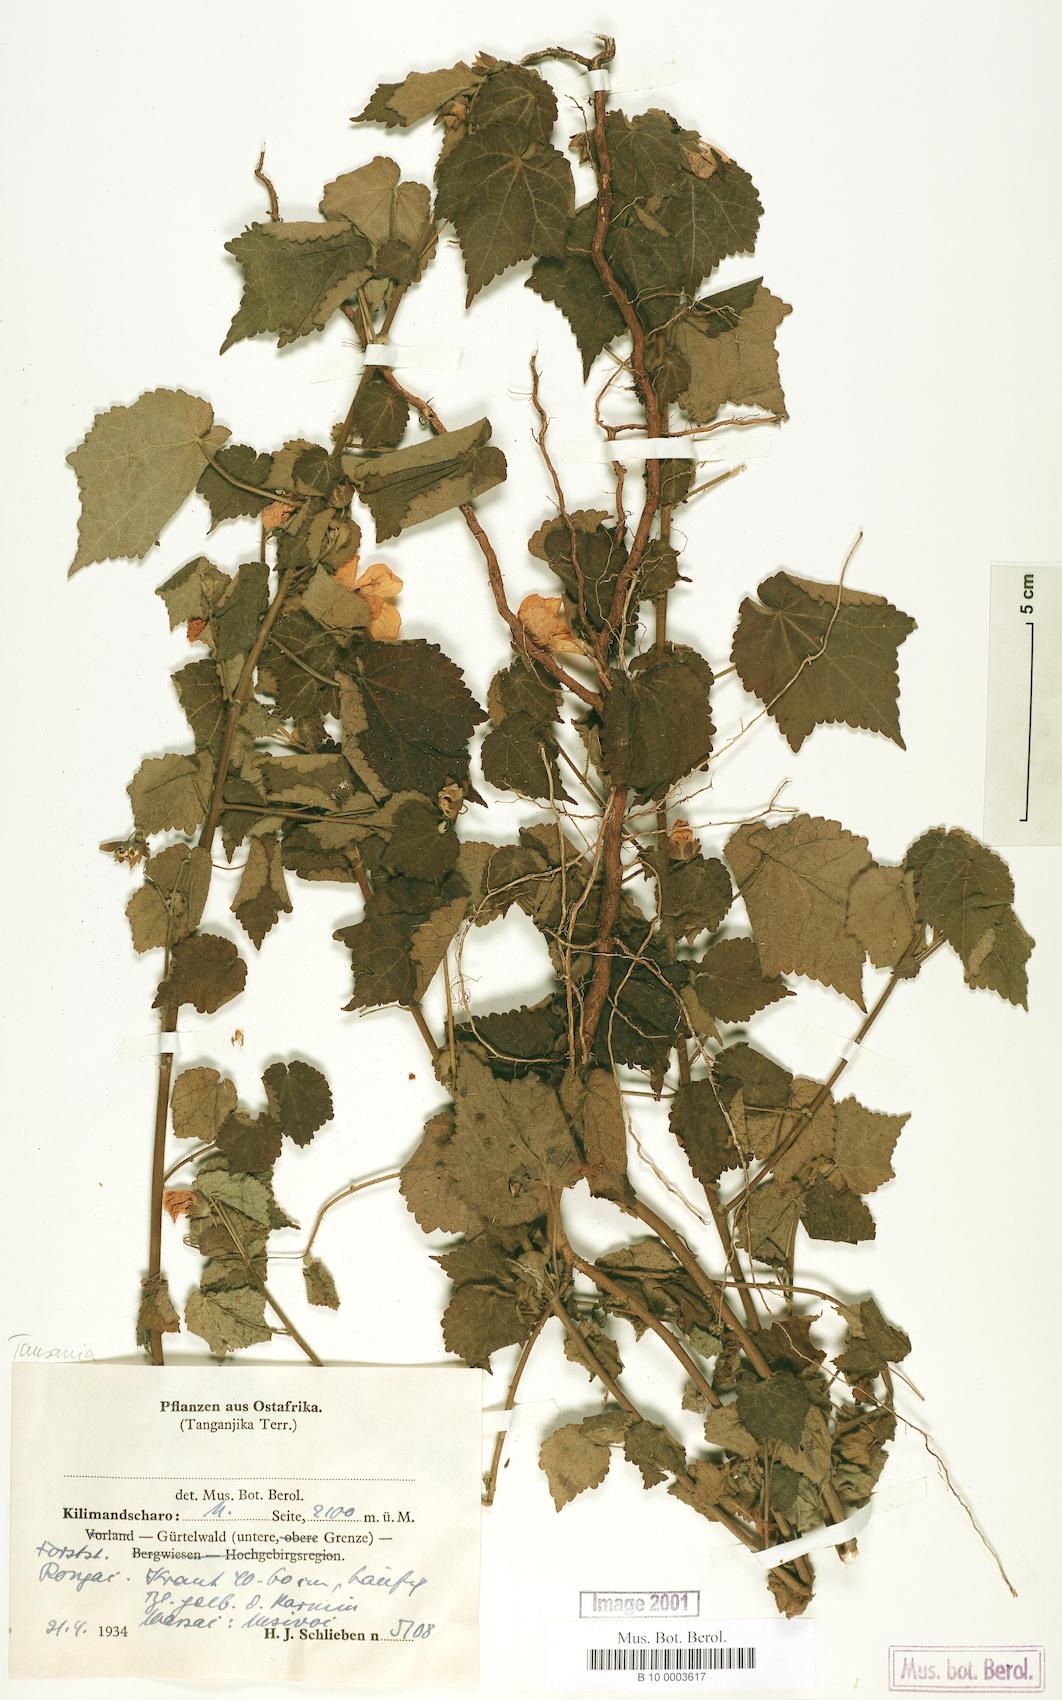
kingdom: Plantae
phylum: Tracheophyta
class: Magnoliopsida
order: Malvales
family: Malvaceae
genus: Pavonia
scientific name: Pavonia burchellii
